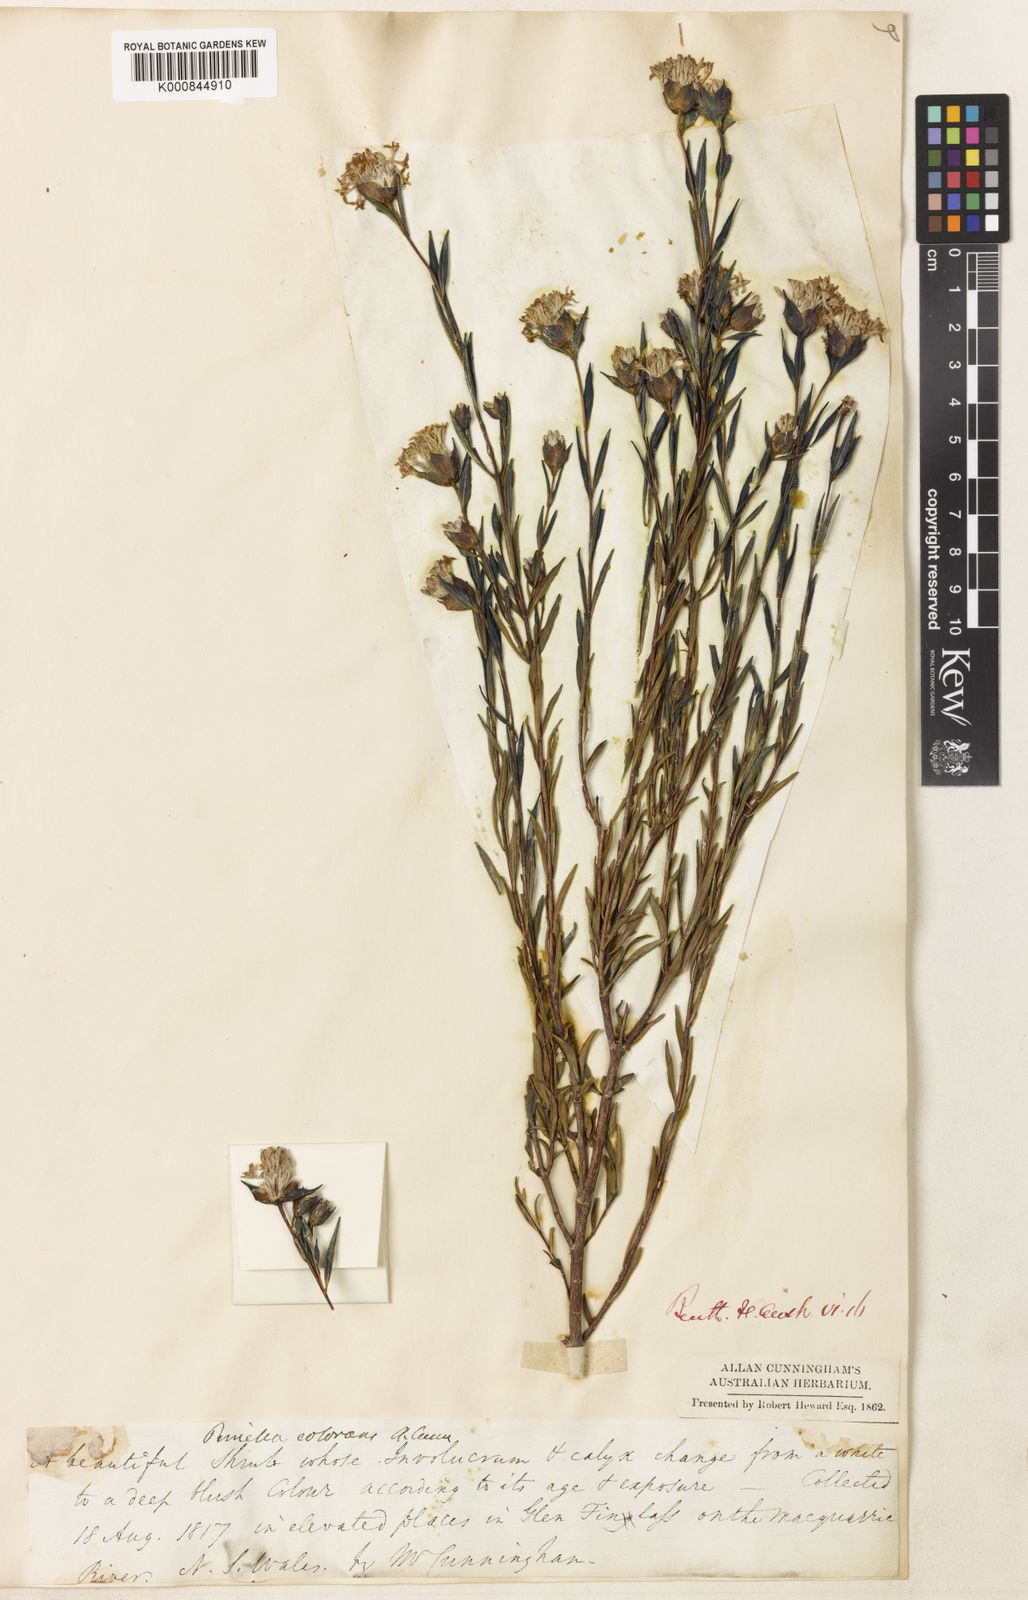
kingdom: Plantae
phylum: Tracheophyta
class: Magnoliopsida
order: Malvales
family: Thymelaeaceae
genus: Pimelea
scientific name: Pimelea
